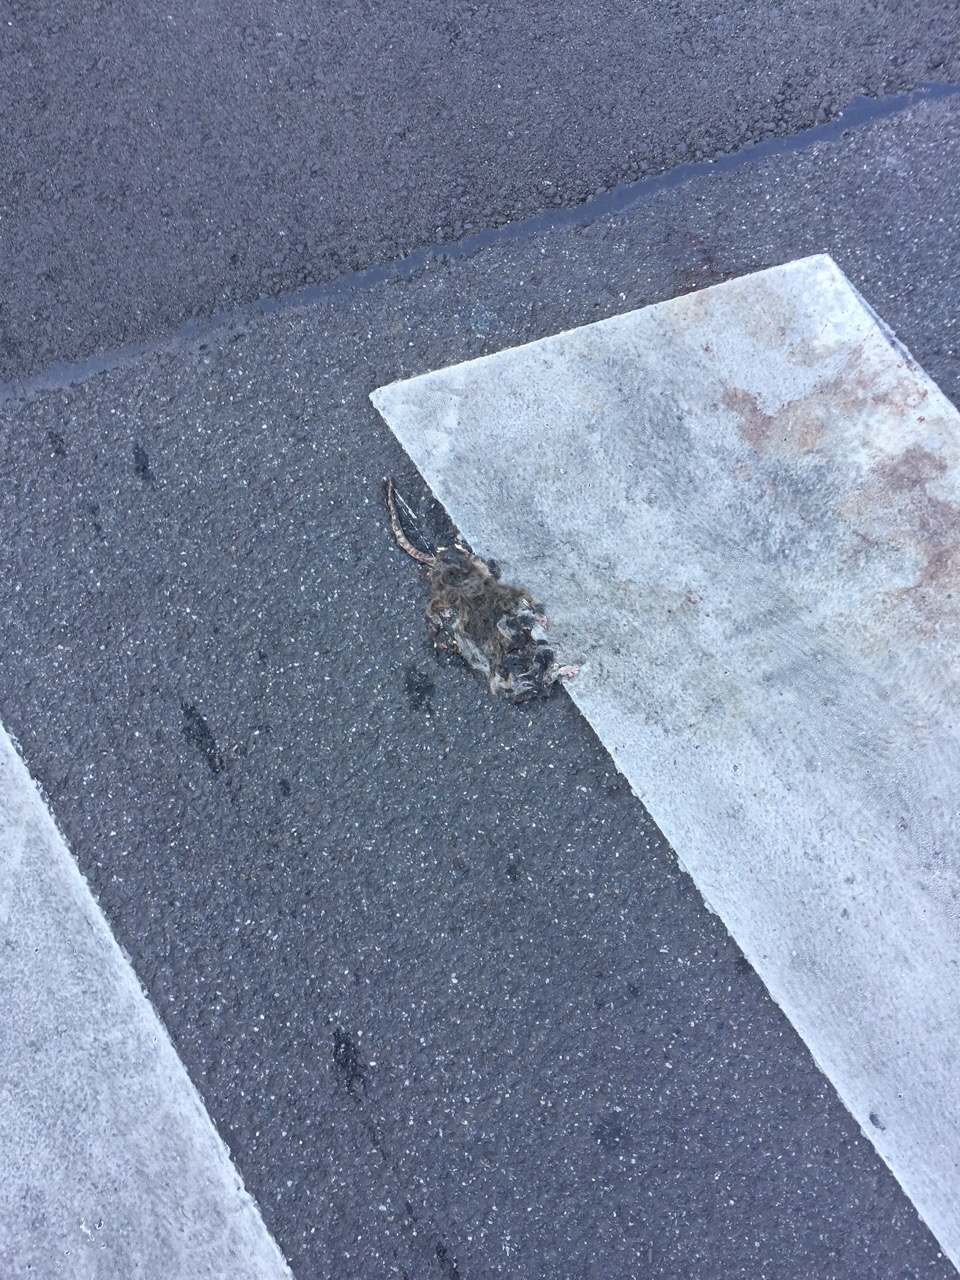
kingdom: Animalia
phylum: Chordata
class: Mammalia
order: Rodentia
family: Muridae
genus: Rattus
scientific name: Rattus
